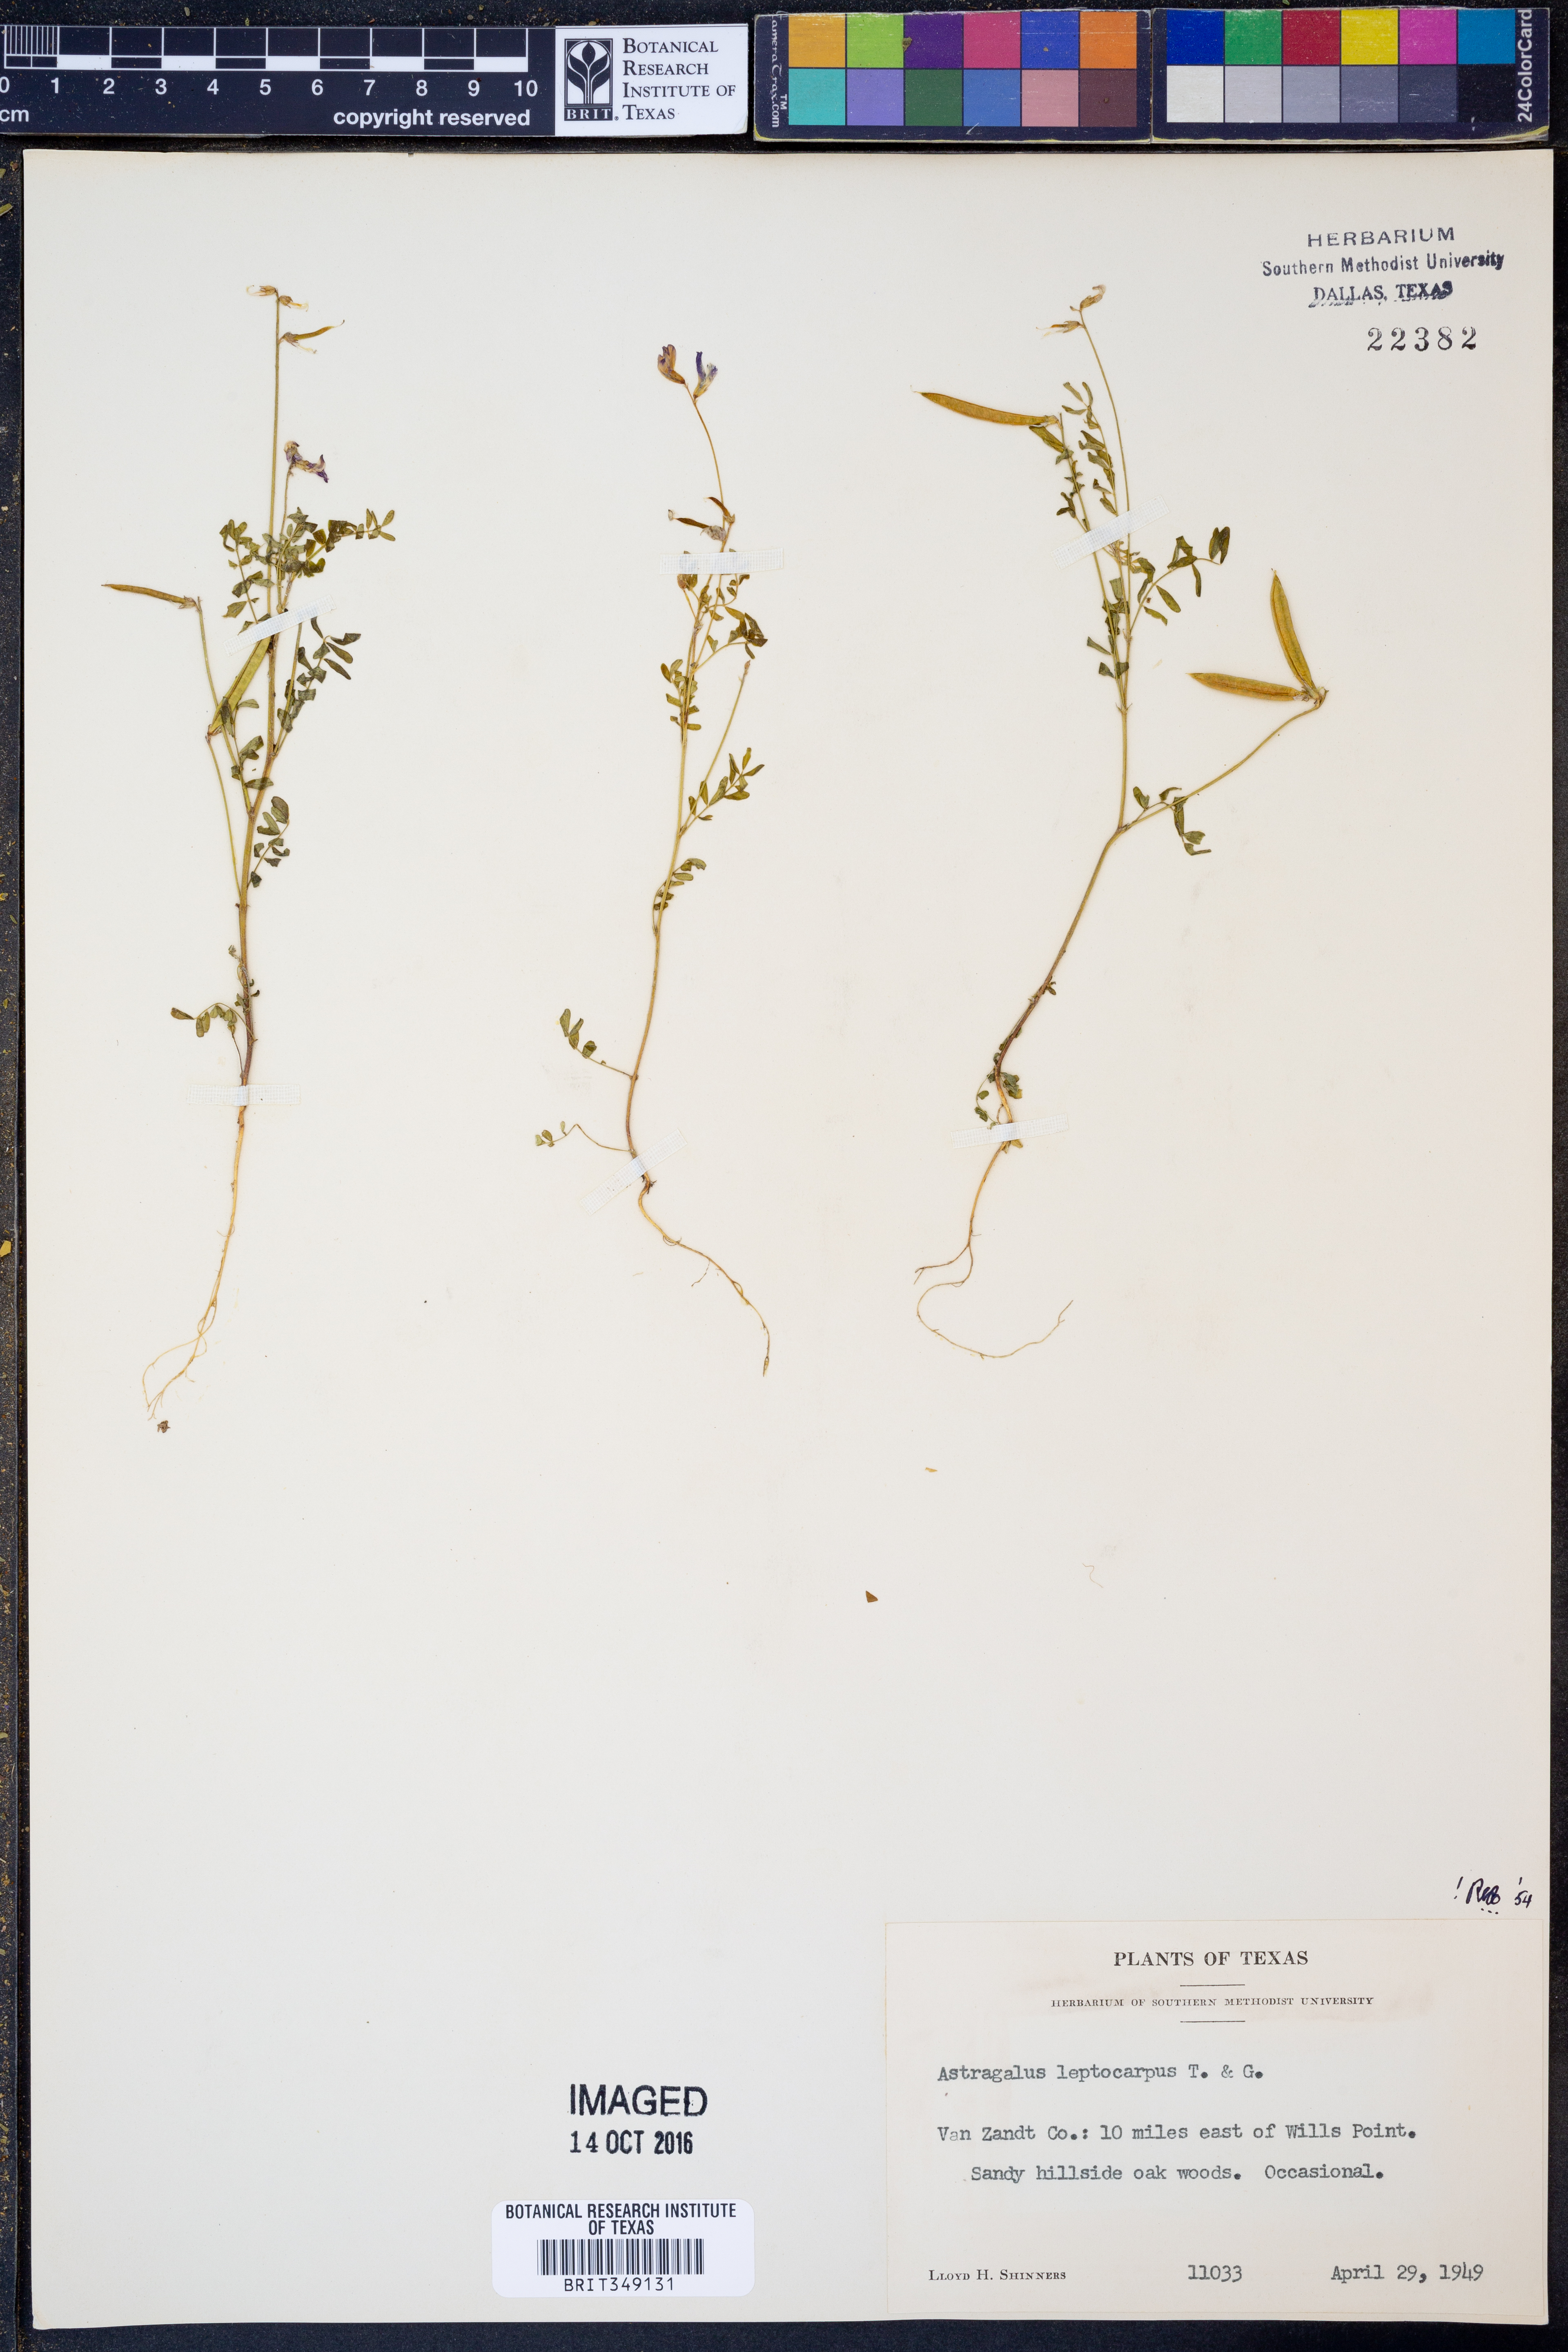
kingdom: Plantae
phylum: Tracheophyta
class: Magnoliopsida
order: Fabales
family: Fabaceae
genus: Astragalus
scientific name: Astragalus leptocarpus
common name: Bodkin milk-vetch
